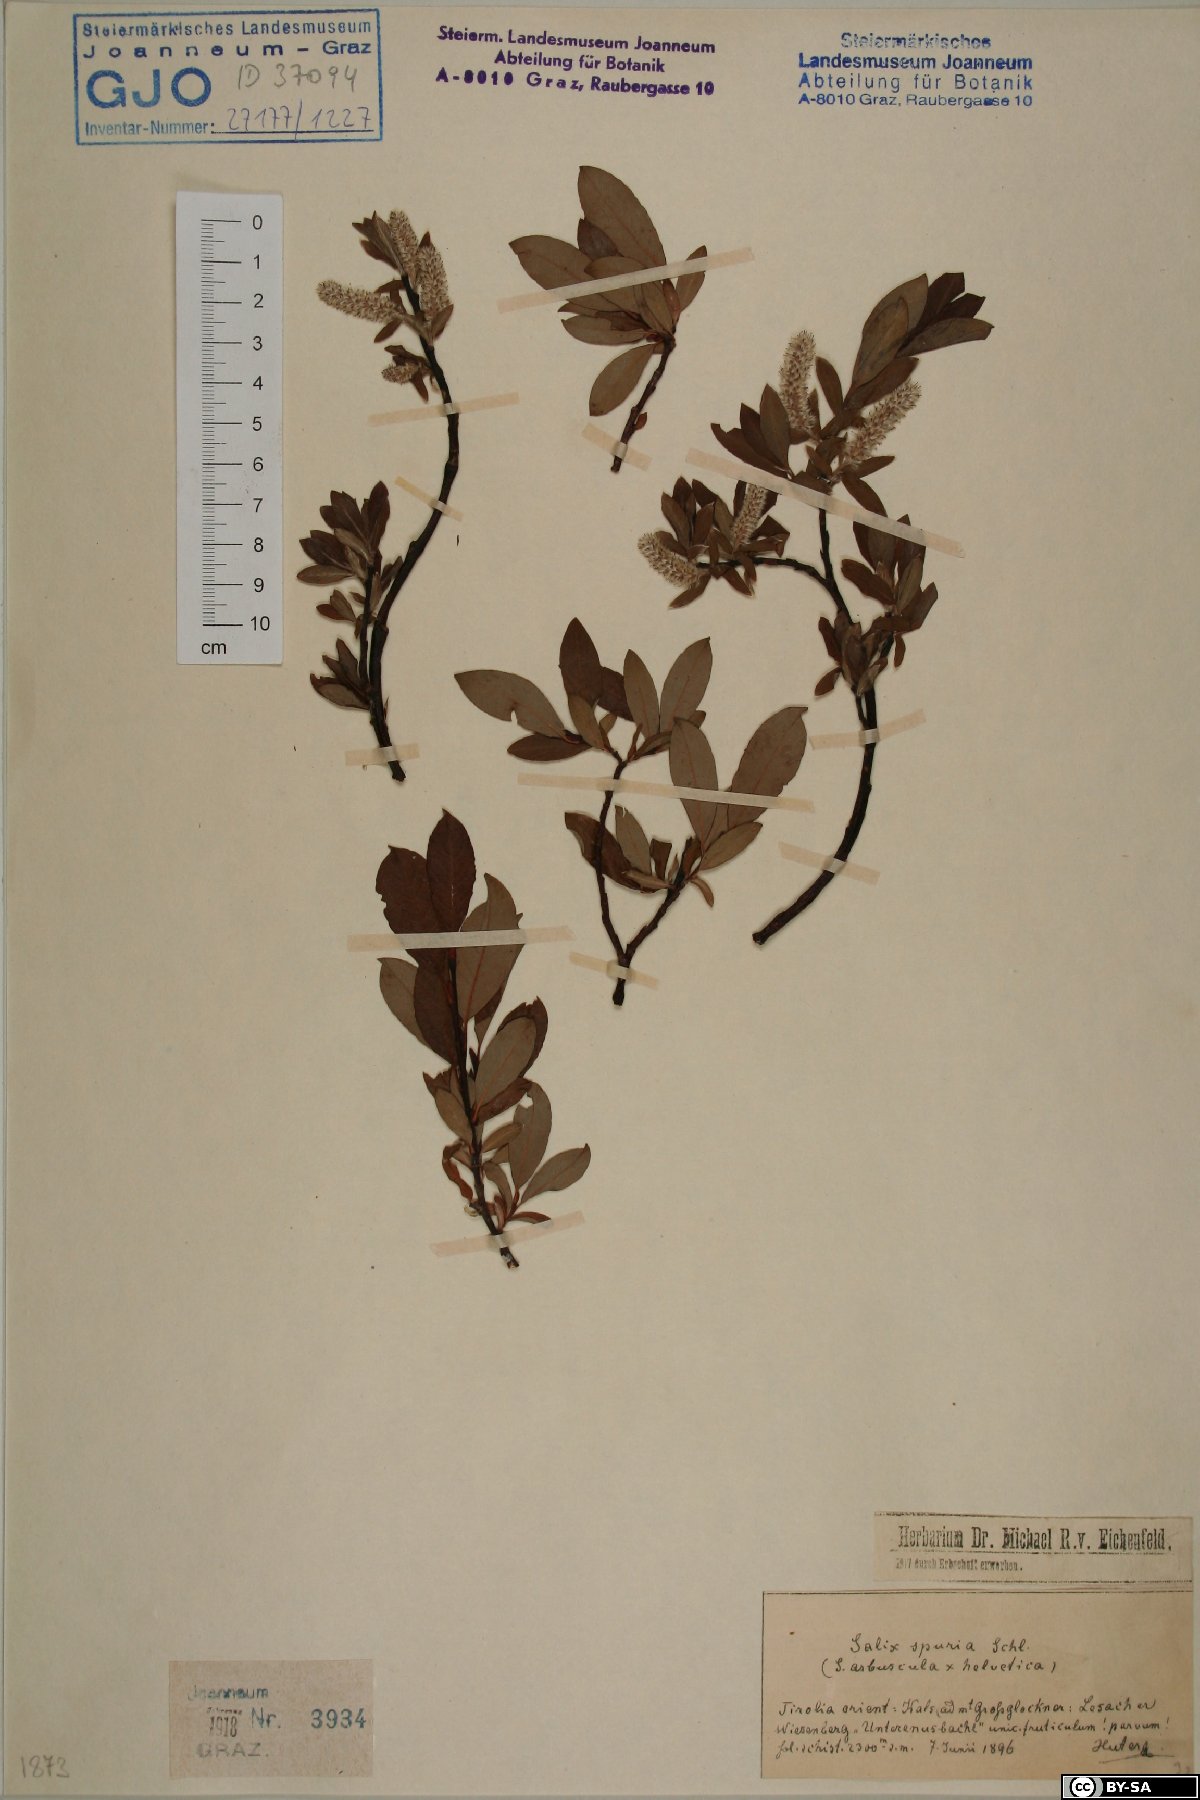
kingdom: Plantae
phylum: Tracheophyta
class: Magnoliopsida
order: Malpighiales
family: Salicaceae
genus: Salix
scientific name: Salix helvetica
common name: Swiss willow
